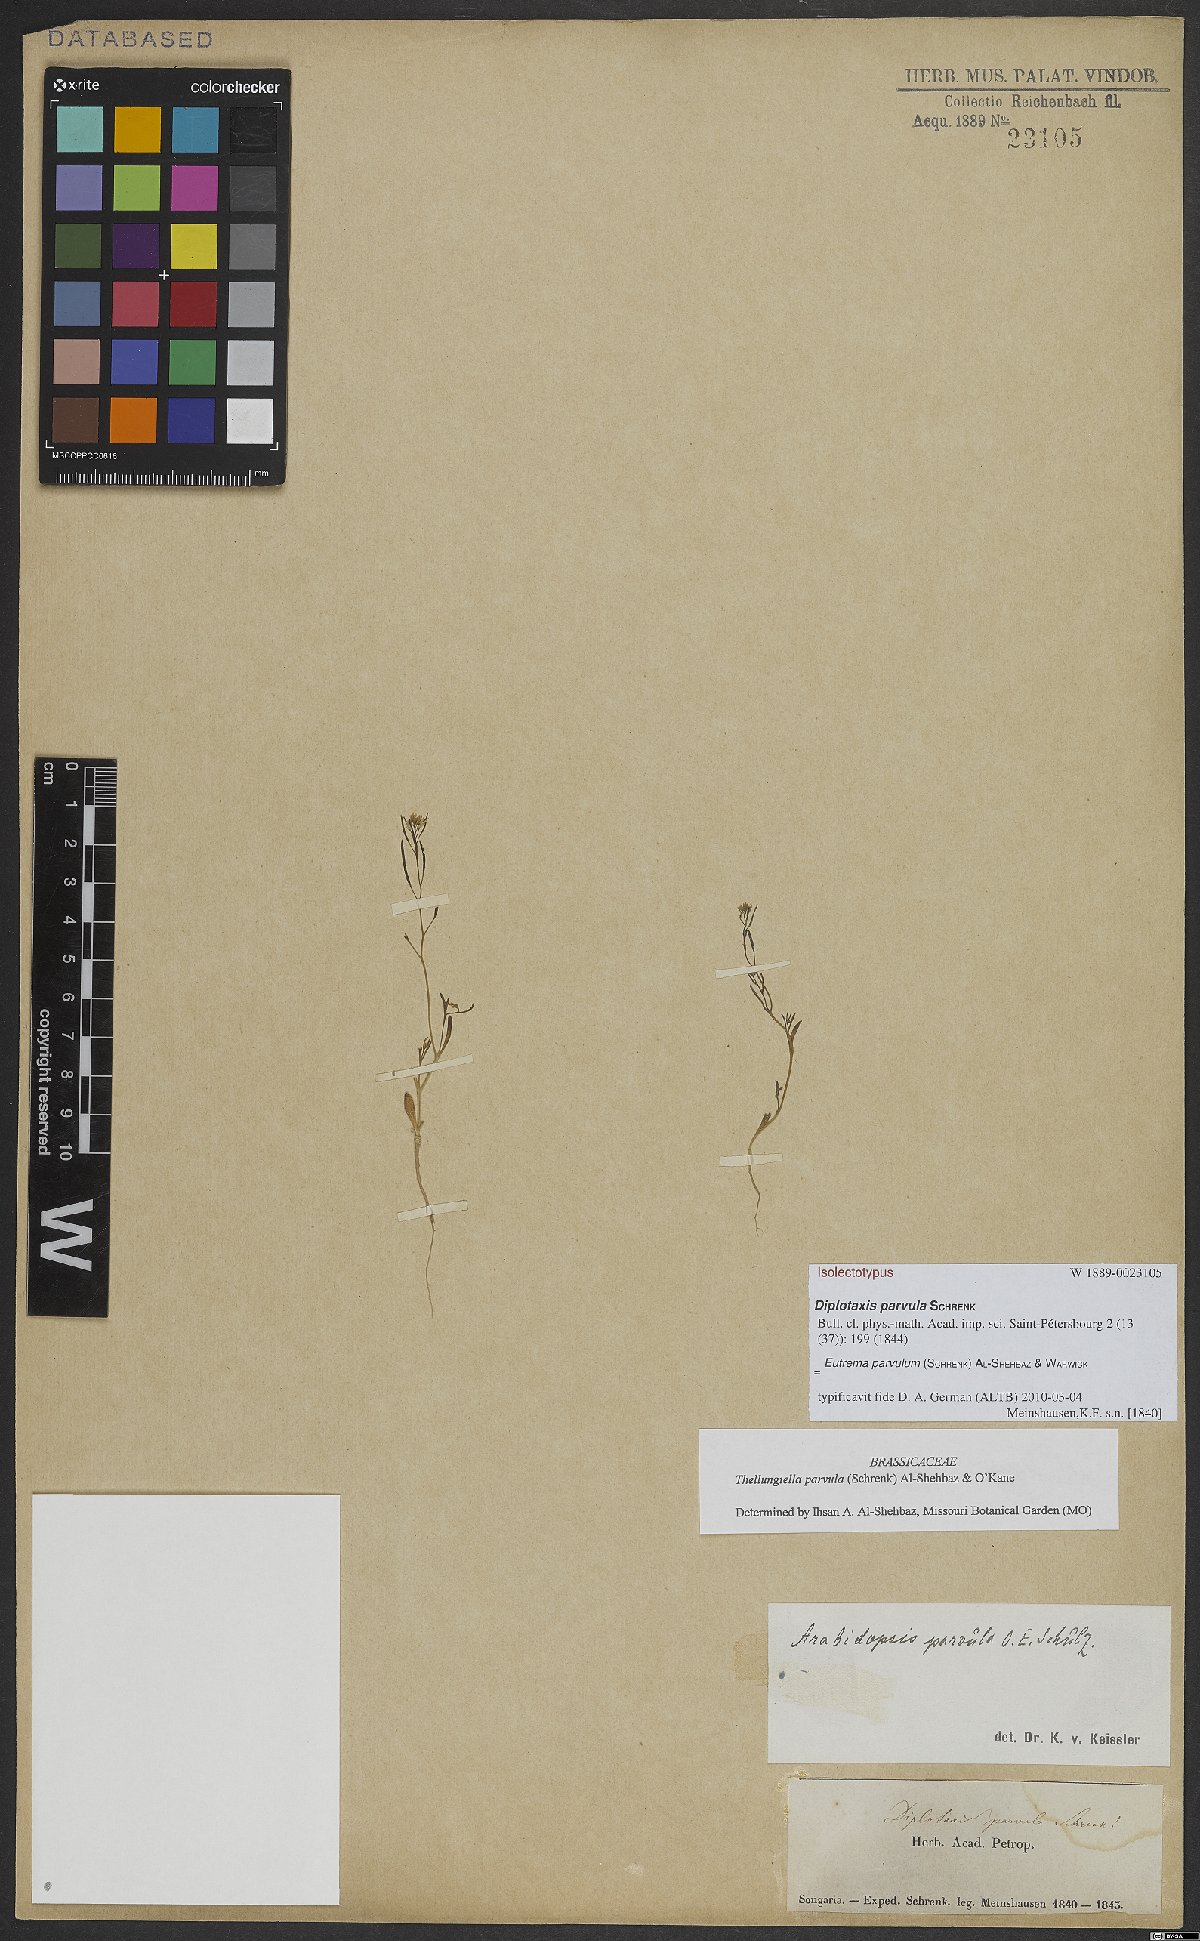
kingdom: Plantae
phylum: Tracheophyta
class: Magnoliopsida
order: Brassicales
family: Brassicaceae
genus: Schrenkiella
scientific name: Schrenkiella parvula
